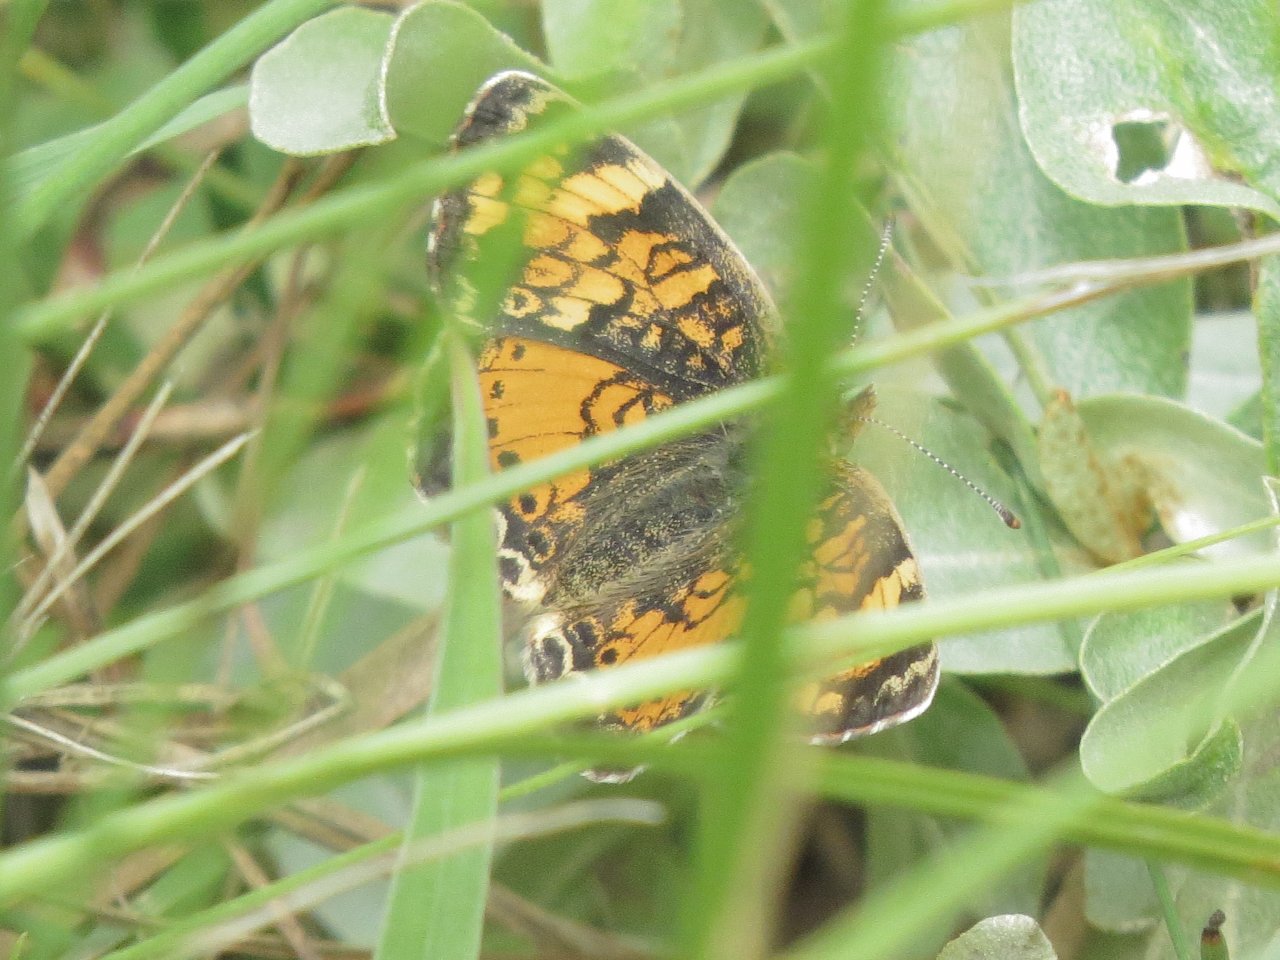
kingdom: Animalia
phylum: Arthropoda
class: Insecta
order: Lepidoptera
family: Nymphalidae
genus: Phyciodes
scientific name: Phyciodes tharos
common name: Northern Crescent
